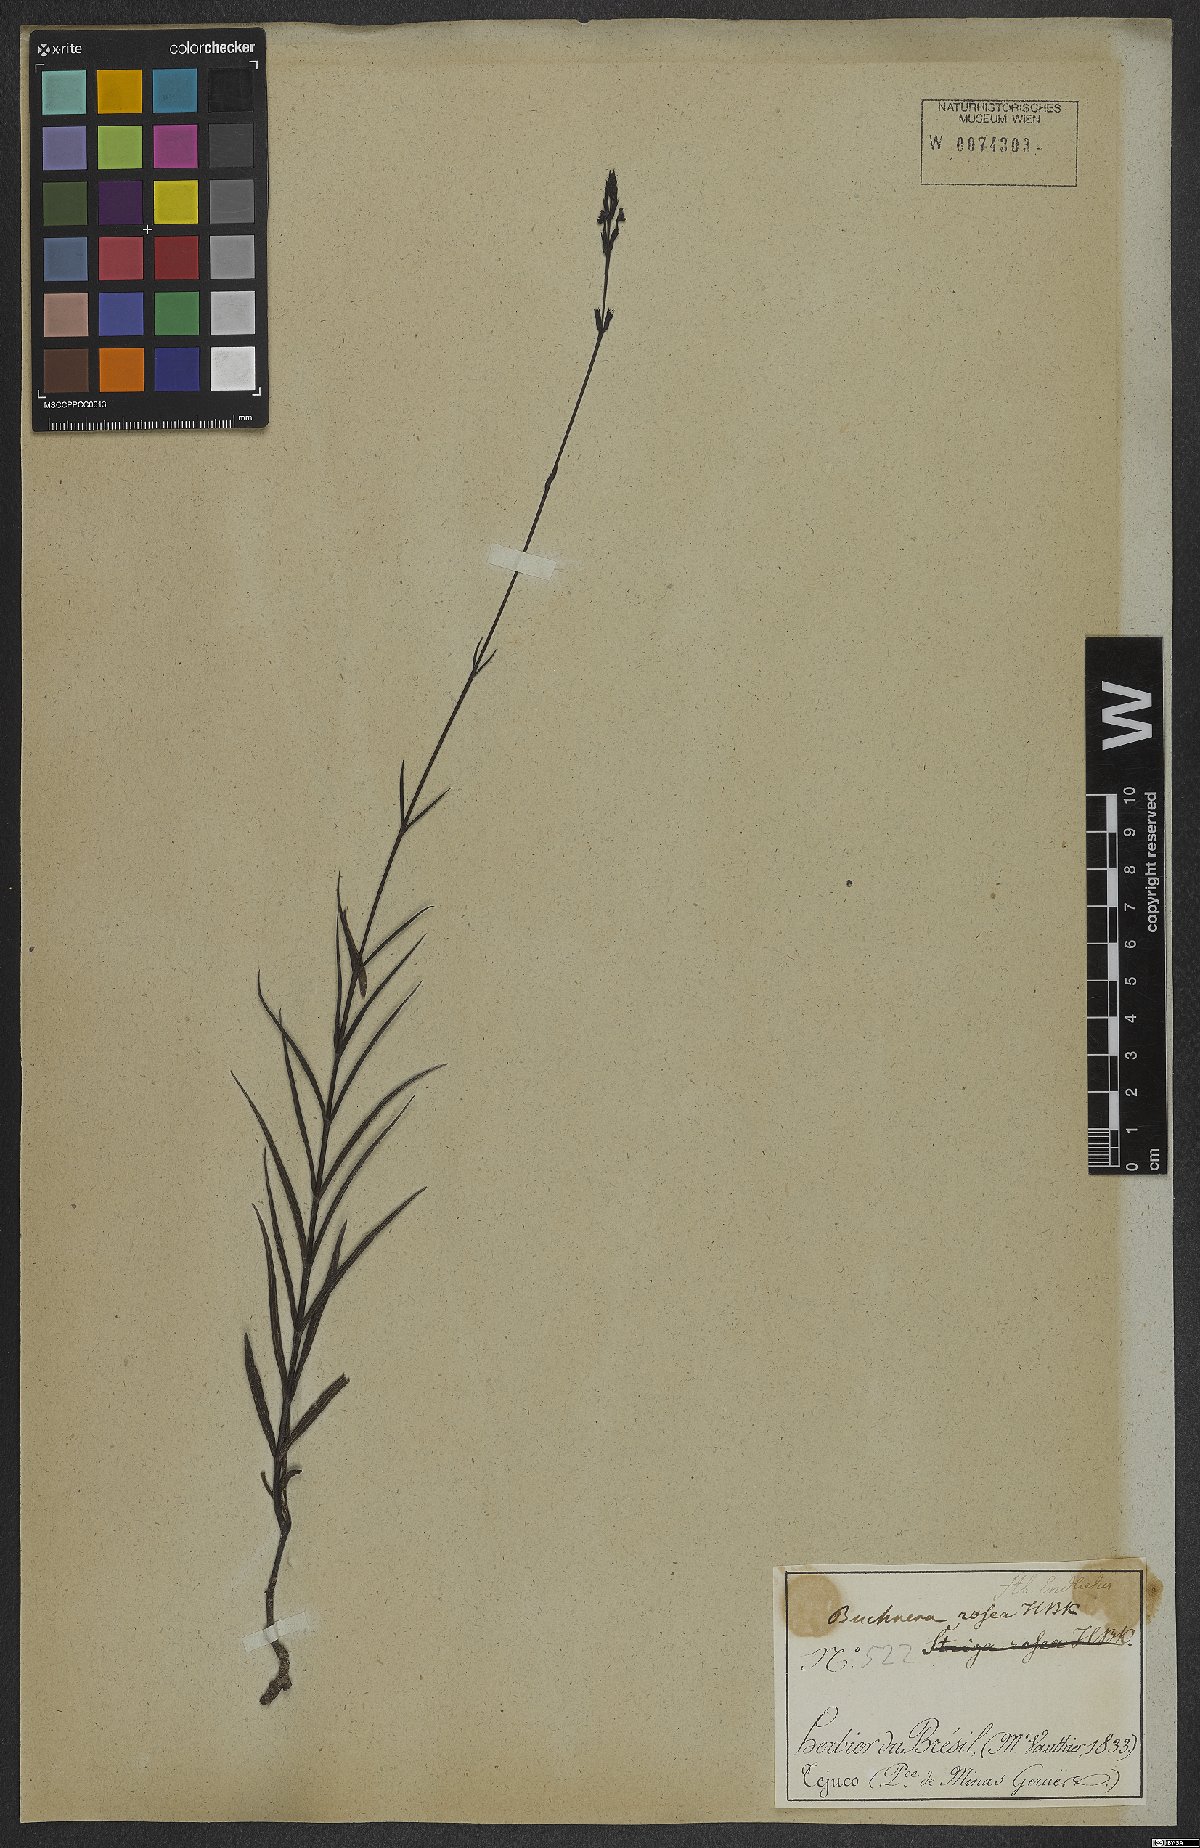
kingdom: Plantae
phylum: Tracheophyta
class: Magnoliopsida
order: Lamiales
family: Orobanchaceae
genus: Buchnera
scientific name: Buchnera rosea
